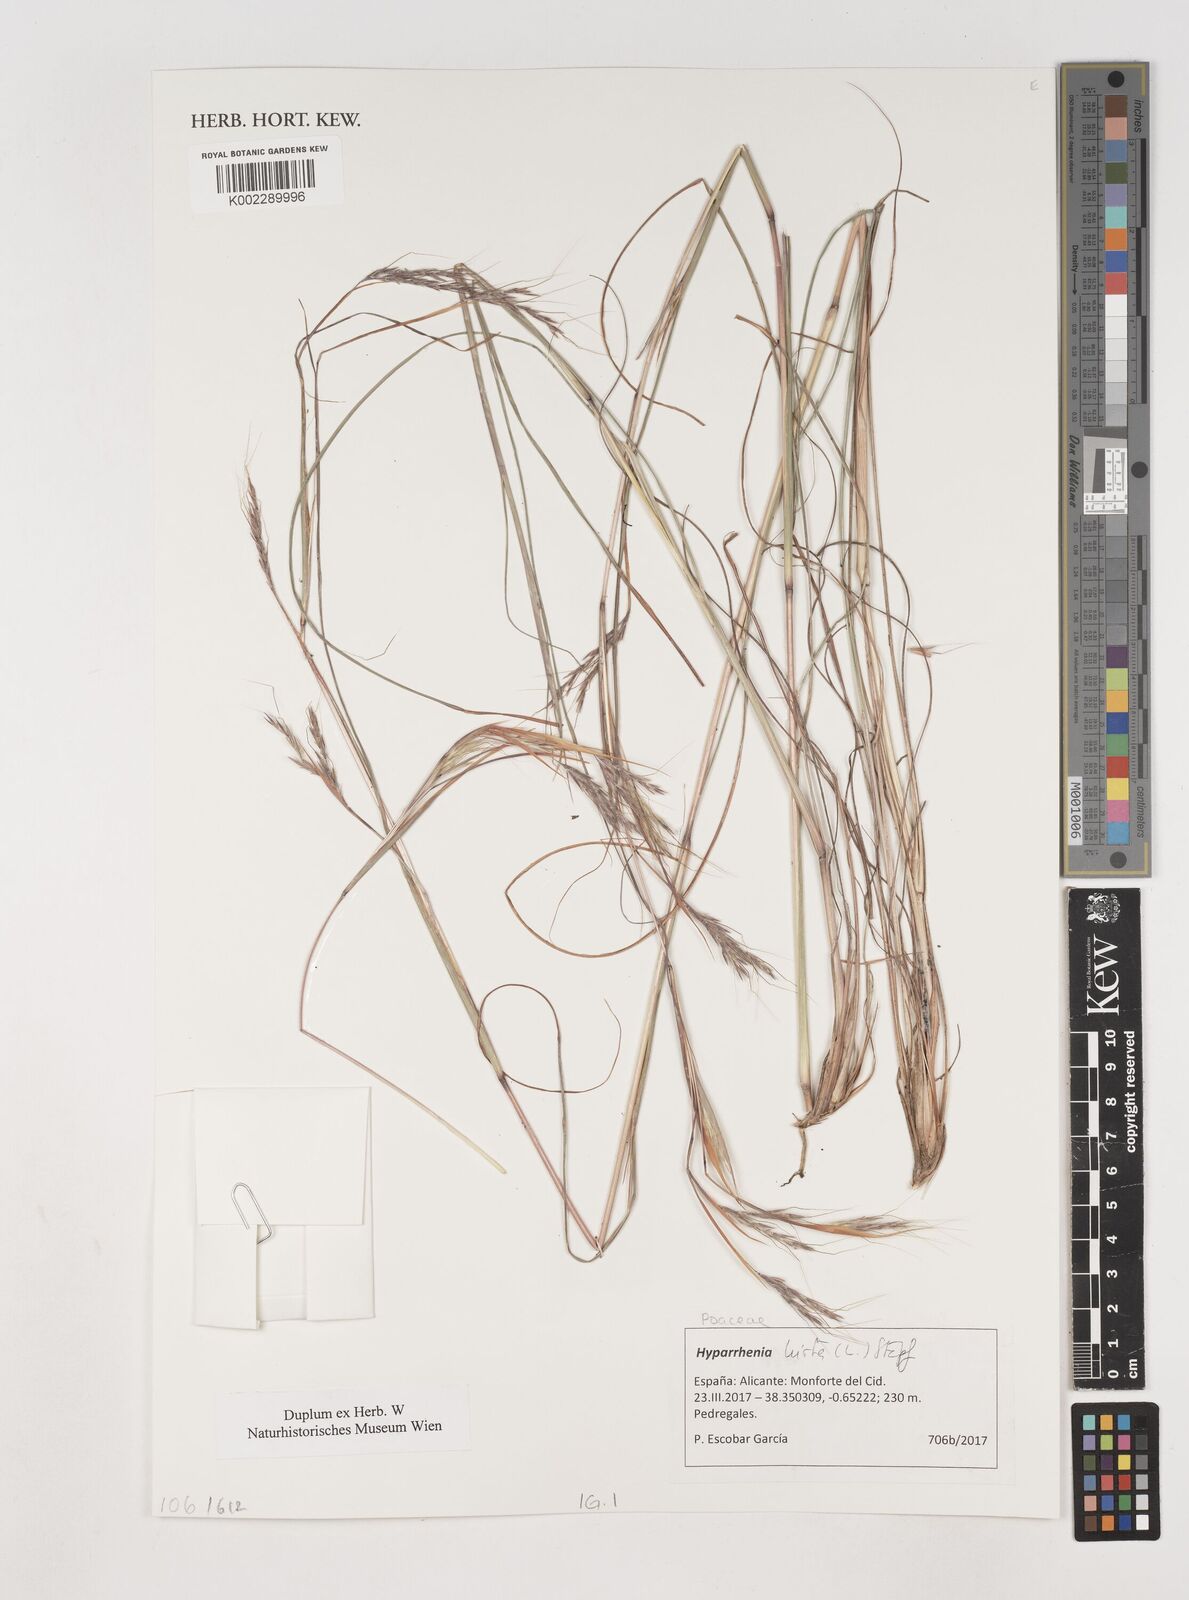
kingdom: Plantae
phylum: Tracheophyta
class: Liliopsida
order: Poales
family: Poaceae
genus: Hyparrhenia
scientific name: Hyparrhenia hirta
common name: Thatching grass
